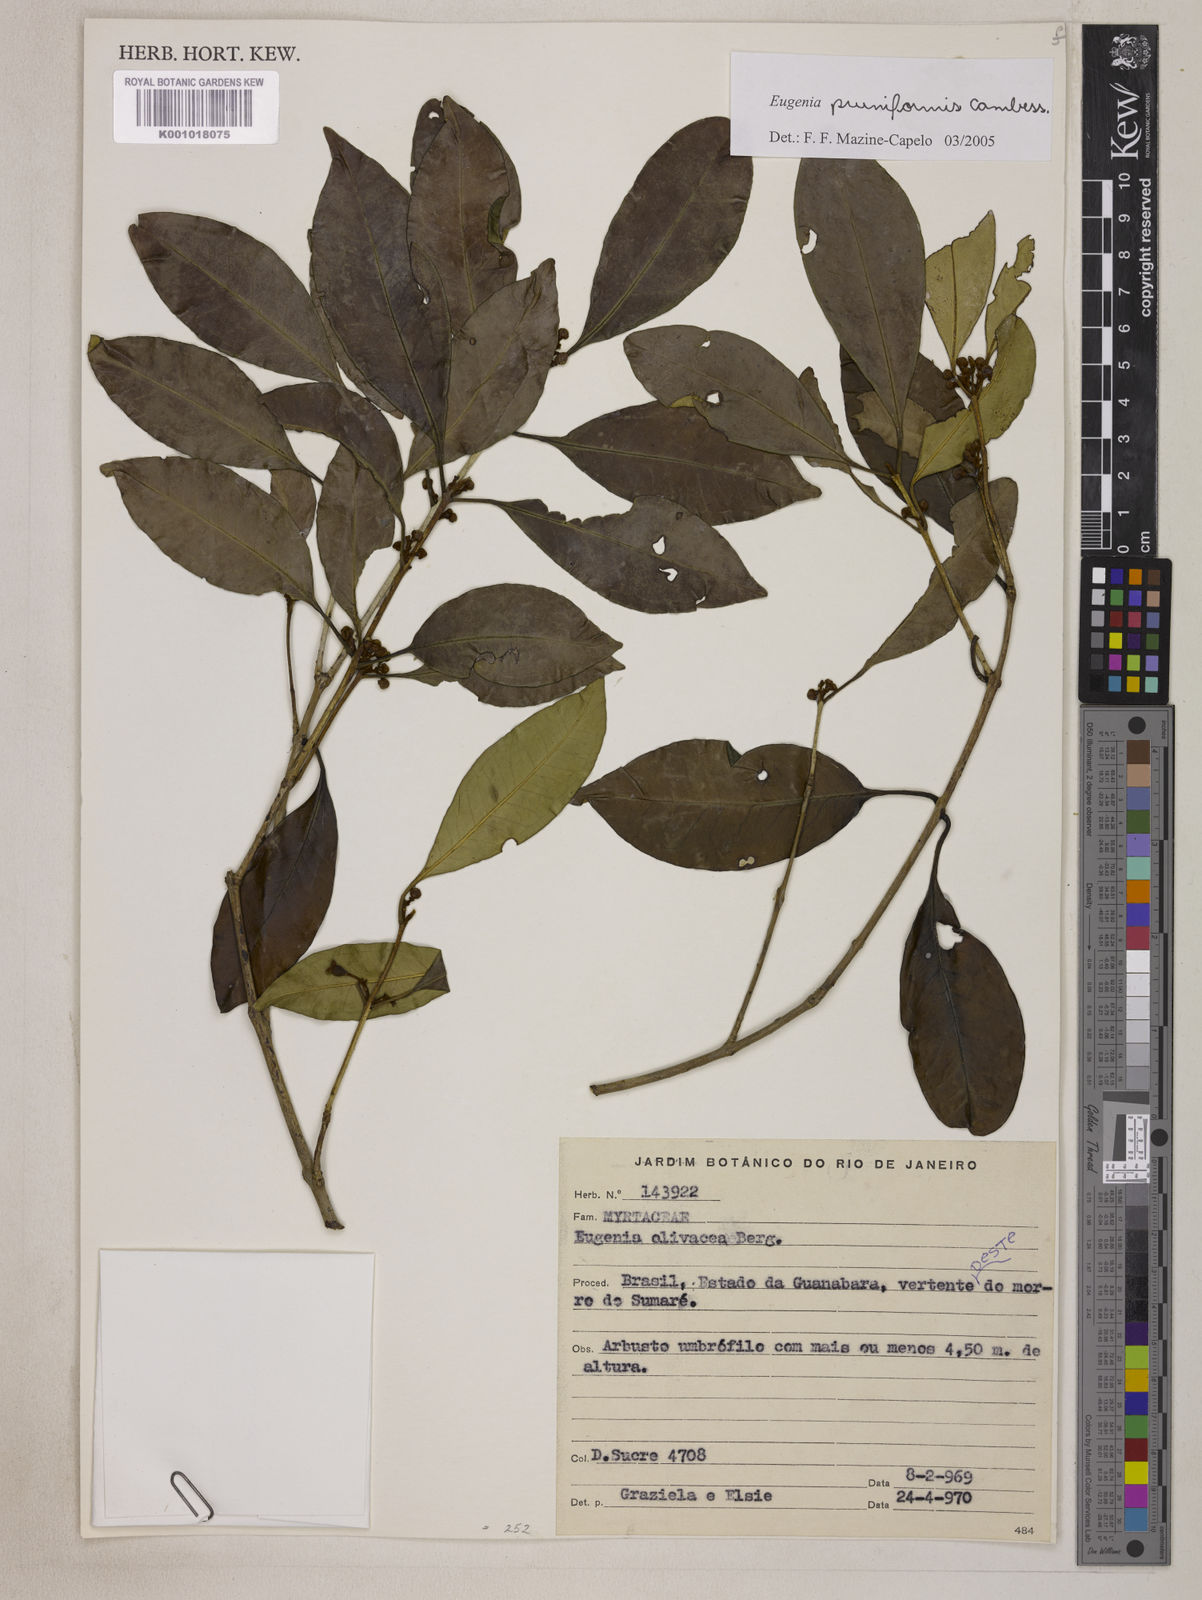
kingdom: Plantae
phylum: Tracheophyta
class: Magnoliopsida
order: Myrtales
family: Myrtaceae
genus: Eugenia
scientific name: Eugenia pruniformis
